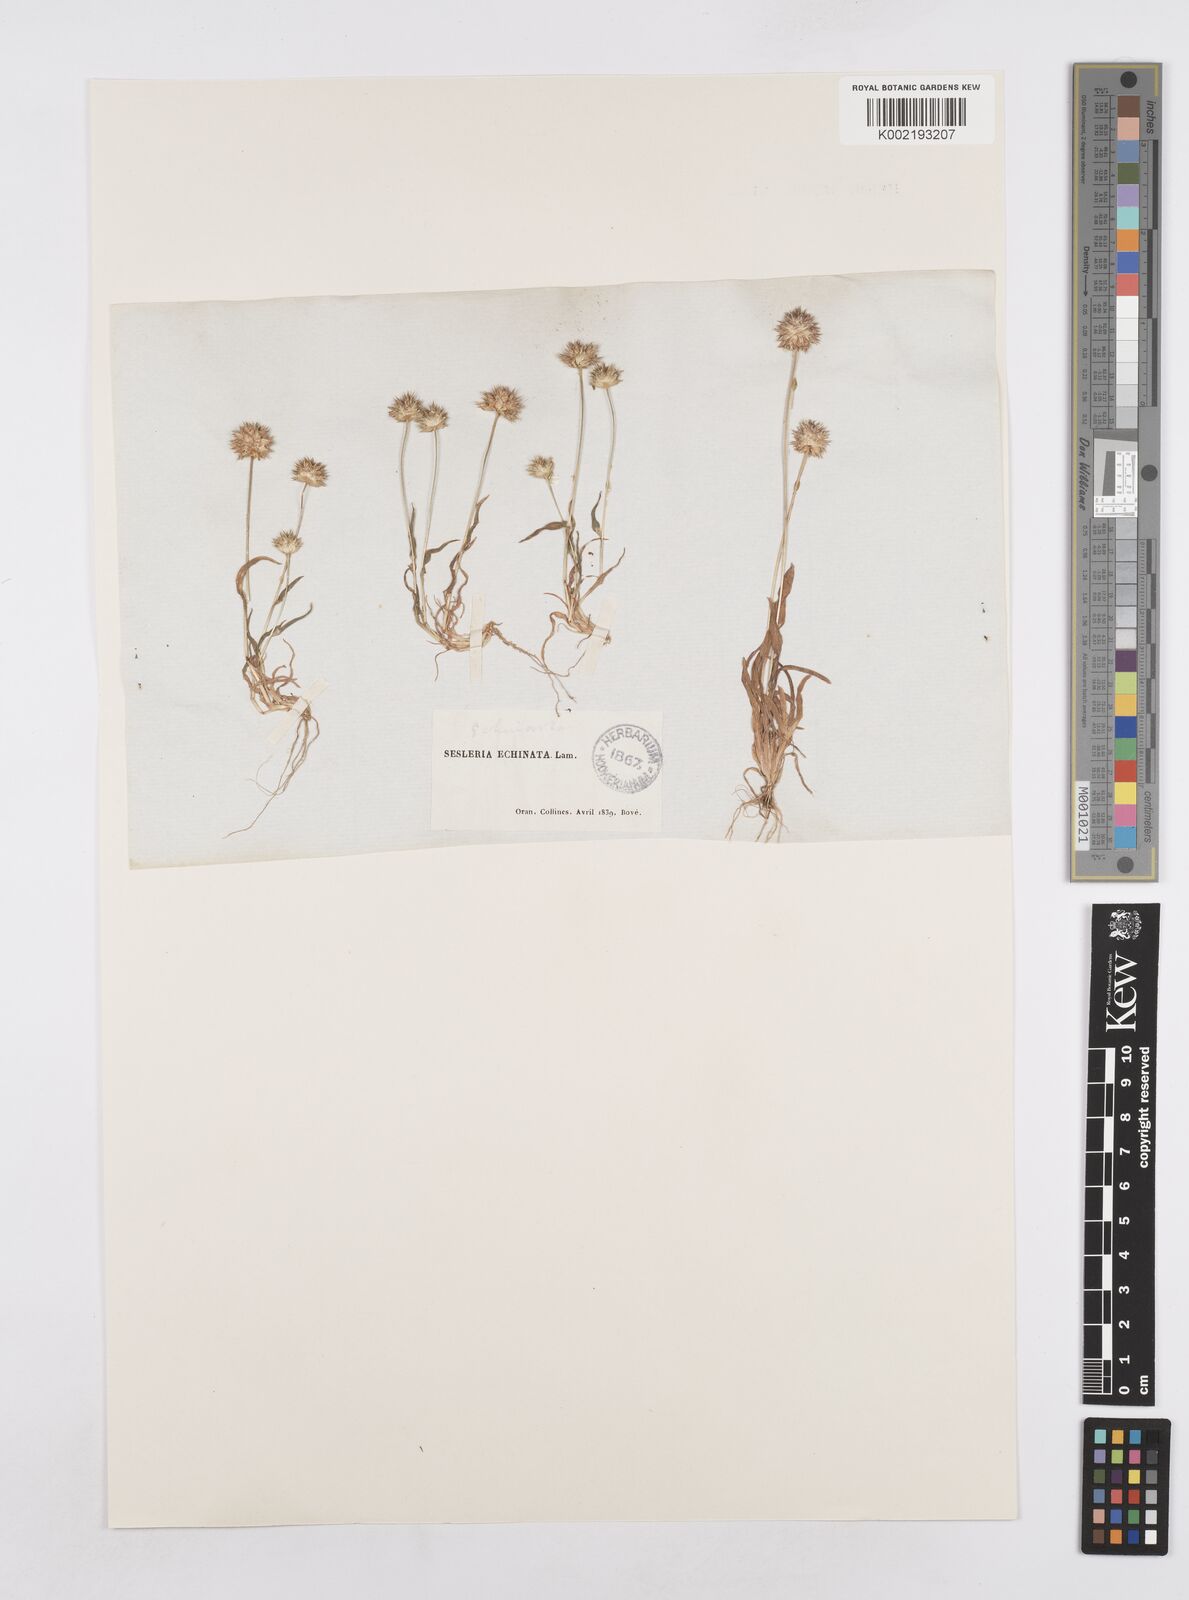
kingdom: Plantae
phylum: Tracheophyta
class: Liliopsida
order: Poales
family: Poaceae
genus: Ammochloa
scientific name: Ammochloa pungens
